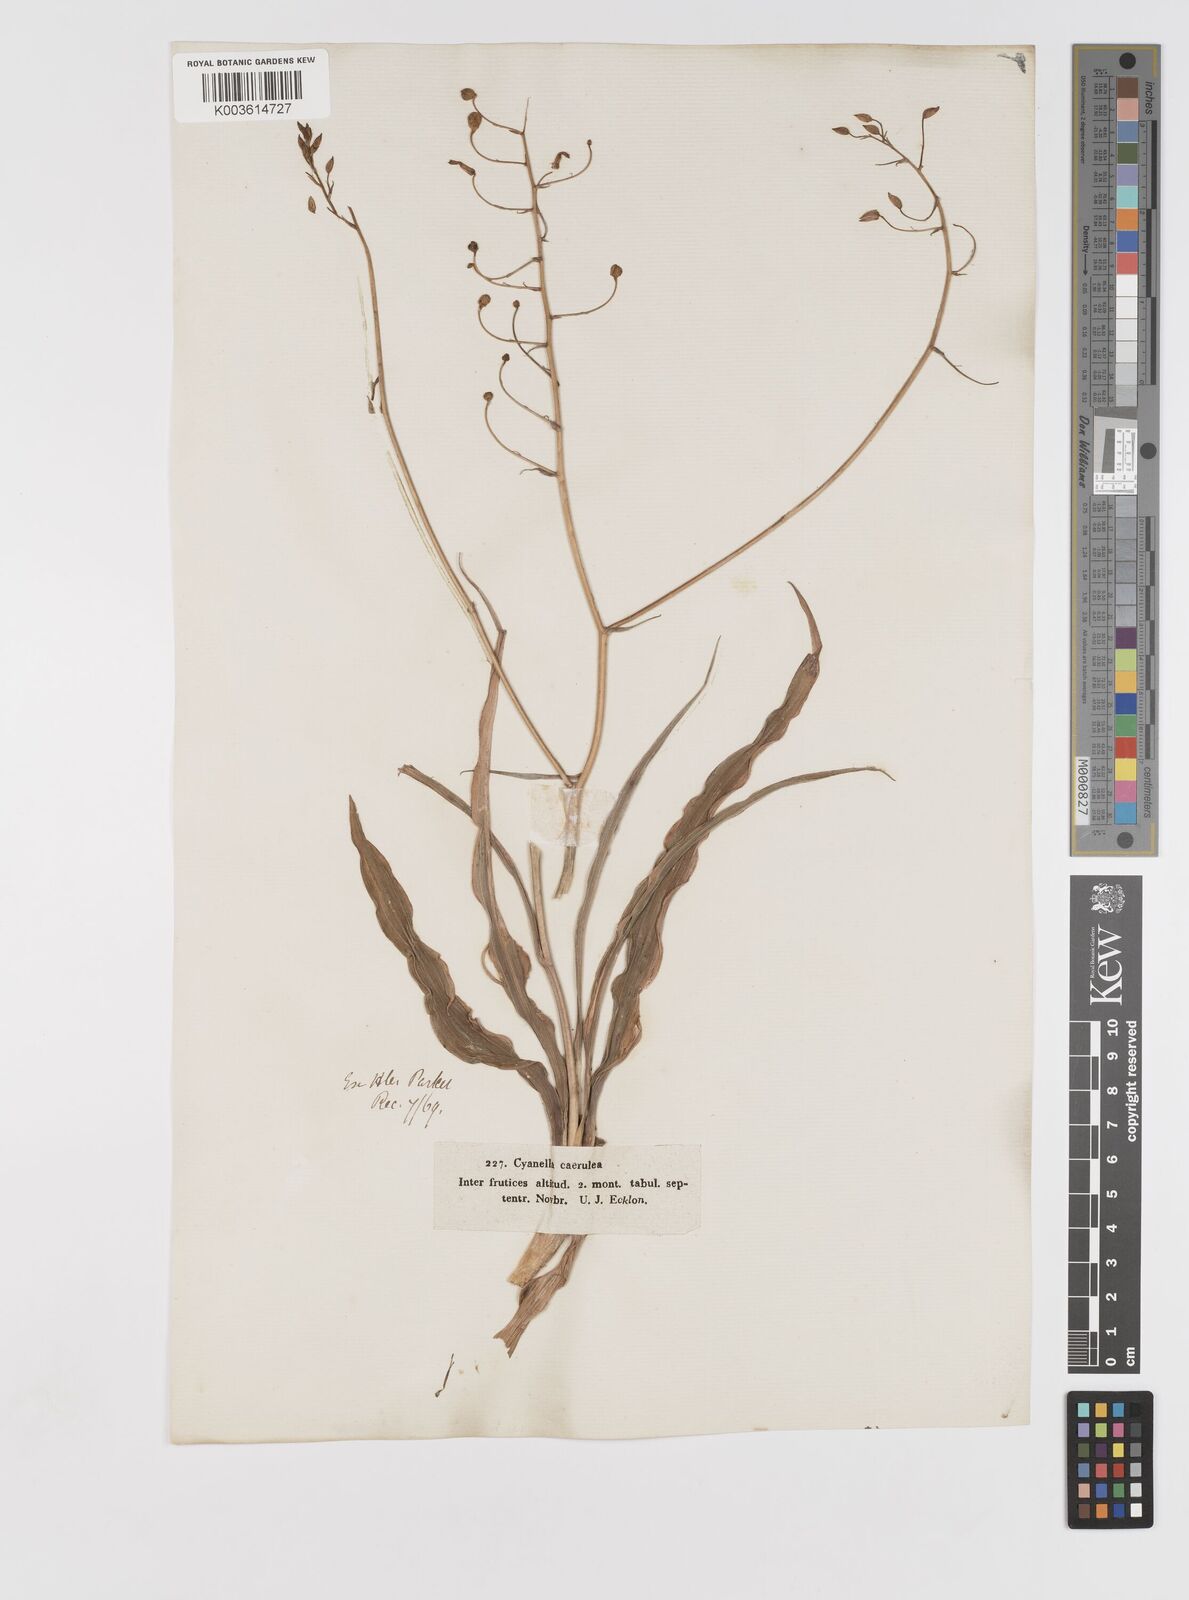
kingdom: Plantae
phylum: Tracheophyta
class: Liliopsida
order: Asparagales
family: Tecophilaeaceae
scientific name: Tecophilaeaceae
